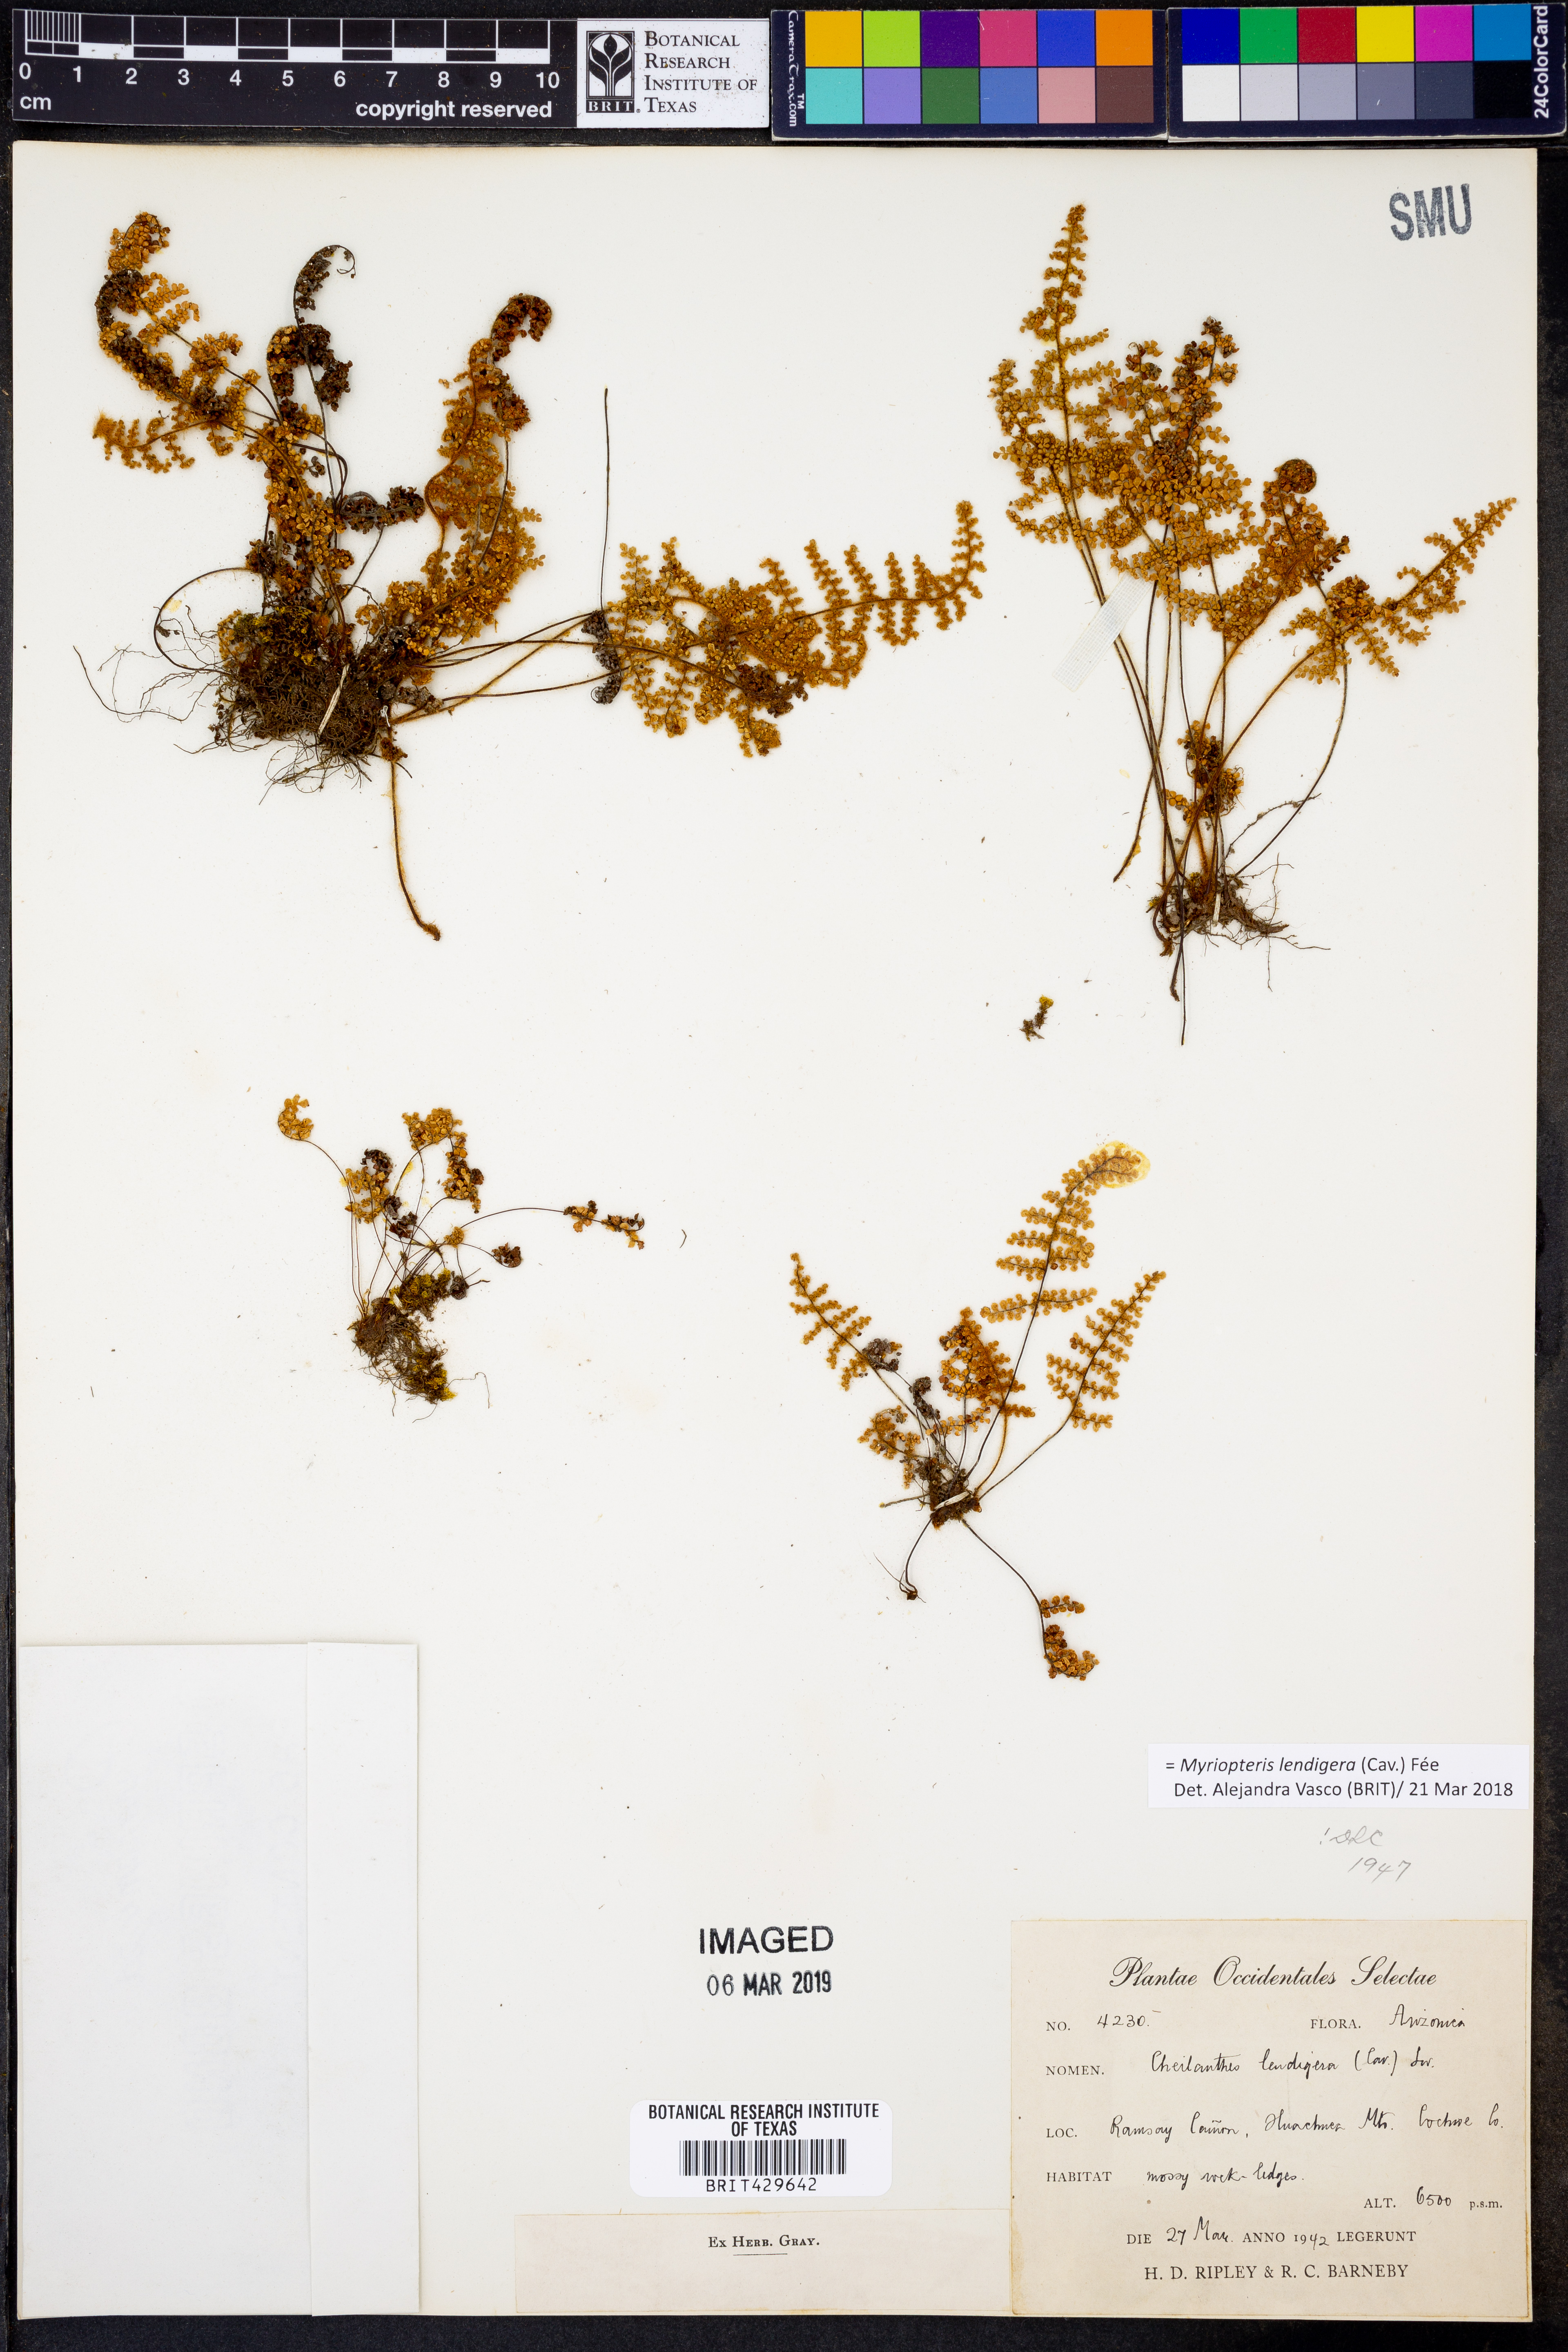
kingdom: Plantae
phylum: Tracheophyta
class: Polypodiopsida
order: Polypodiales
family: Pteridaceae
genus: Myriopteris
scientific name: Myriopteris lendigera
